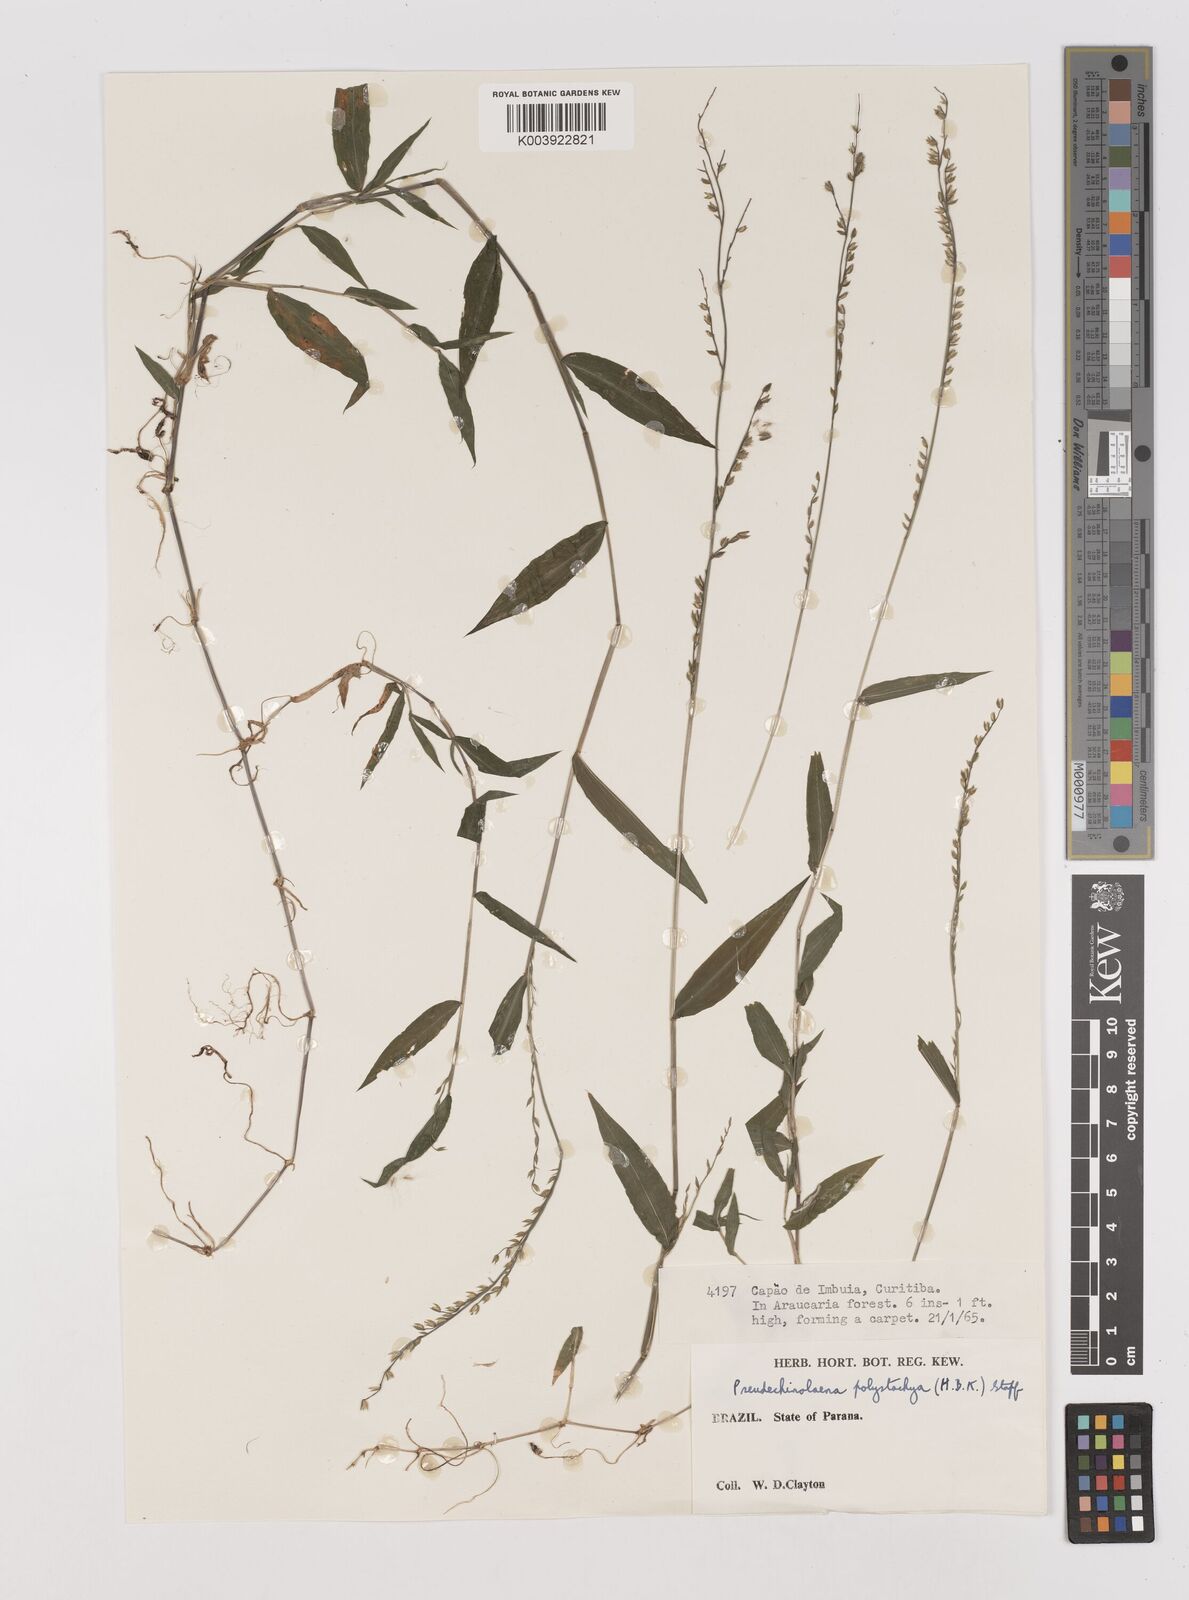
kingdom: Plantae
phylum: Tracheophyta
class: Liliopsida
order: Poales
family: Poaceae
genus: Pseudechinolaena
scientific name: Pseudechinolaena polystachya
